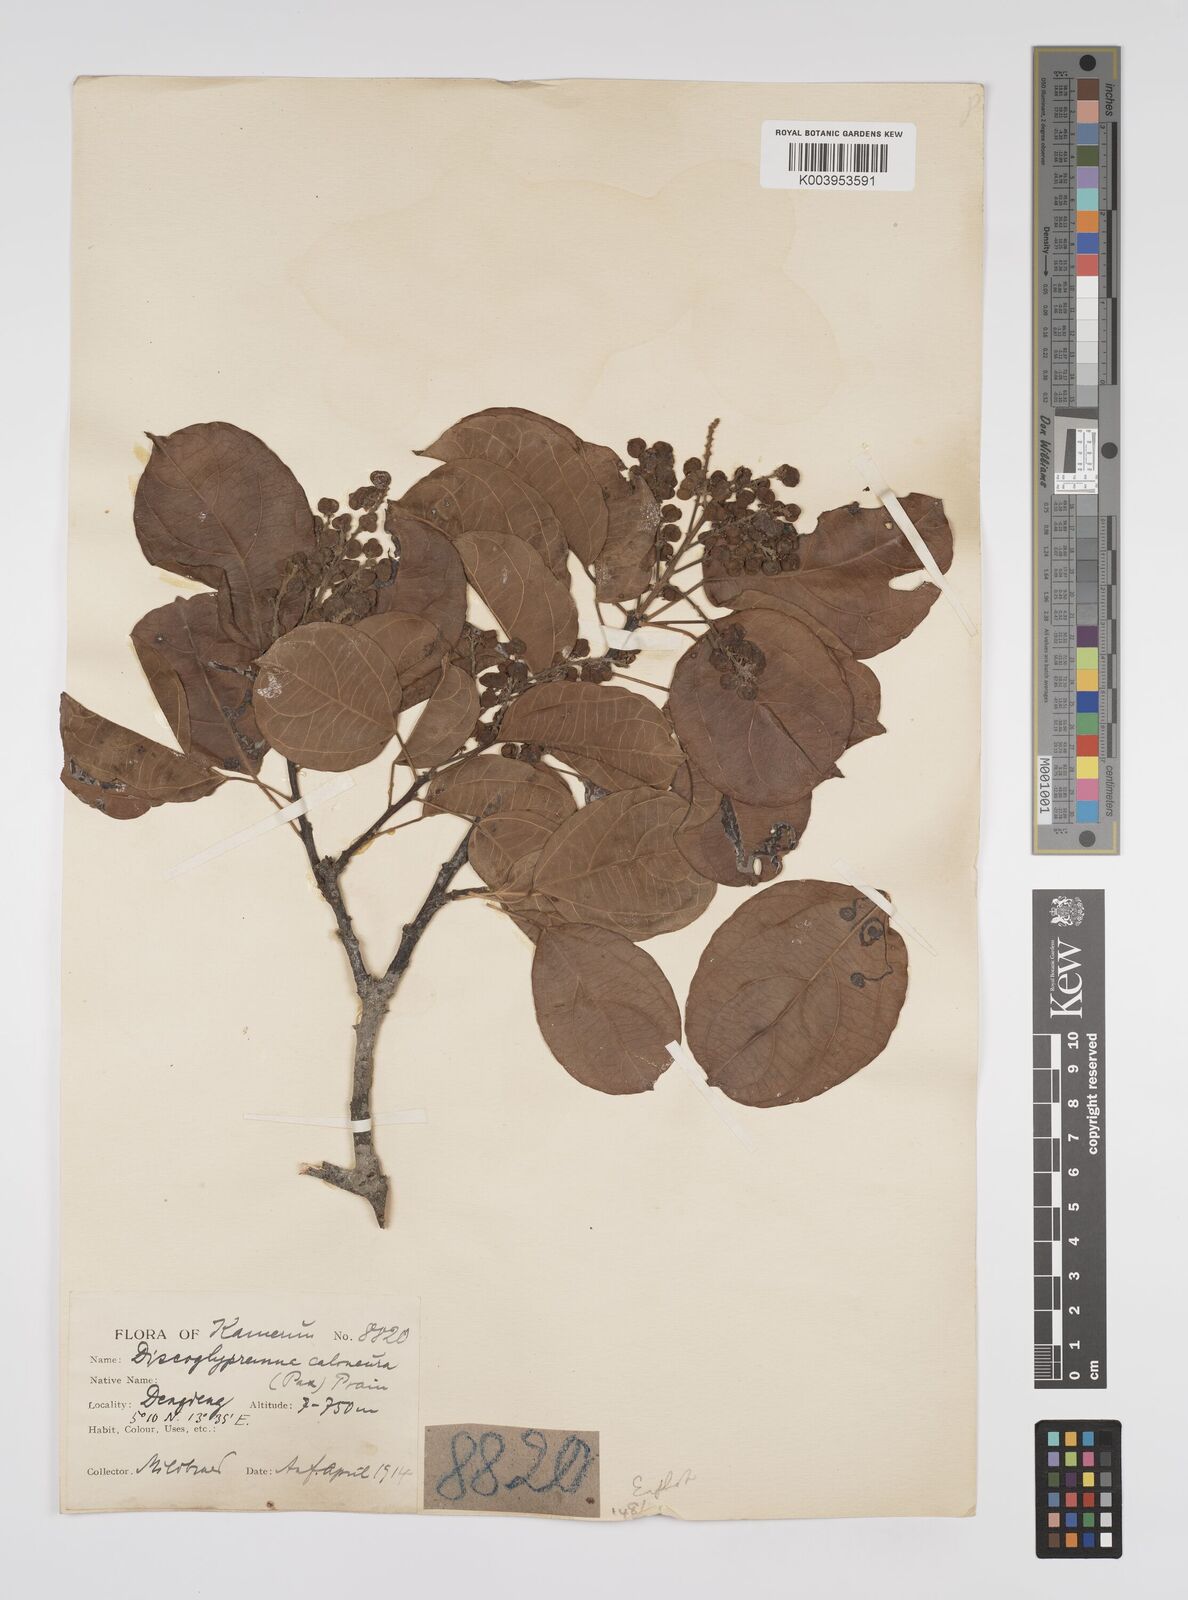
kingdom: Plantae
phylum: Tracheophyta
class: Magnoliopsida
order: Malpighiales
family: Euphorbiaceae
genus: Discoglypremna
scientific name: Discoglypremna caloneura
